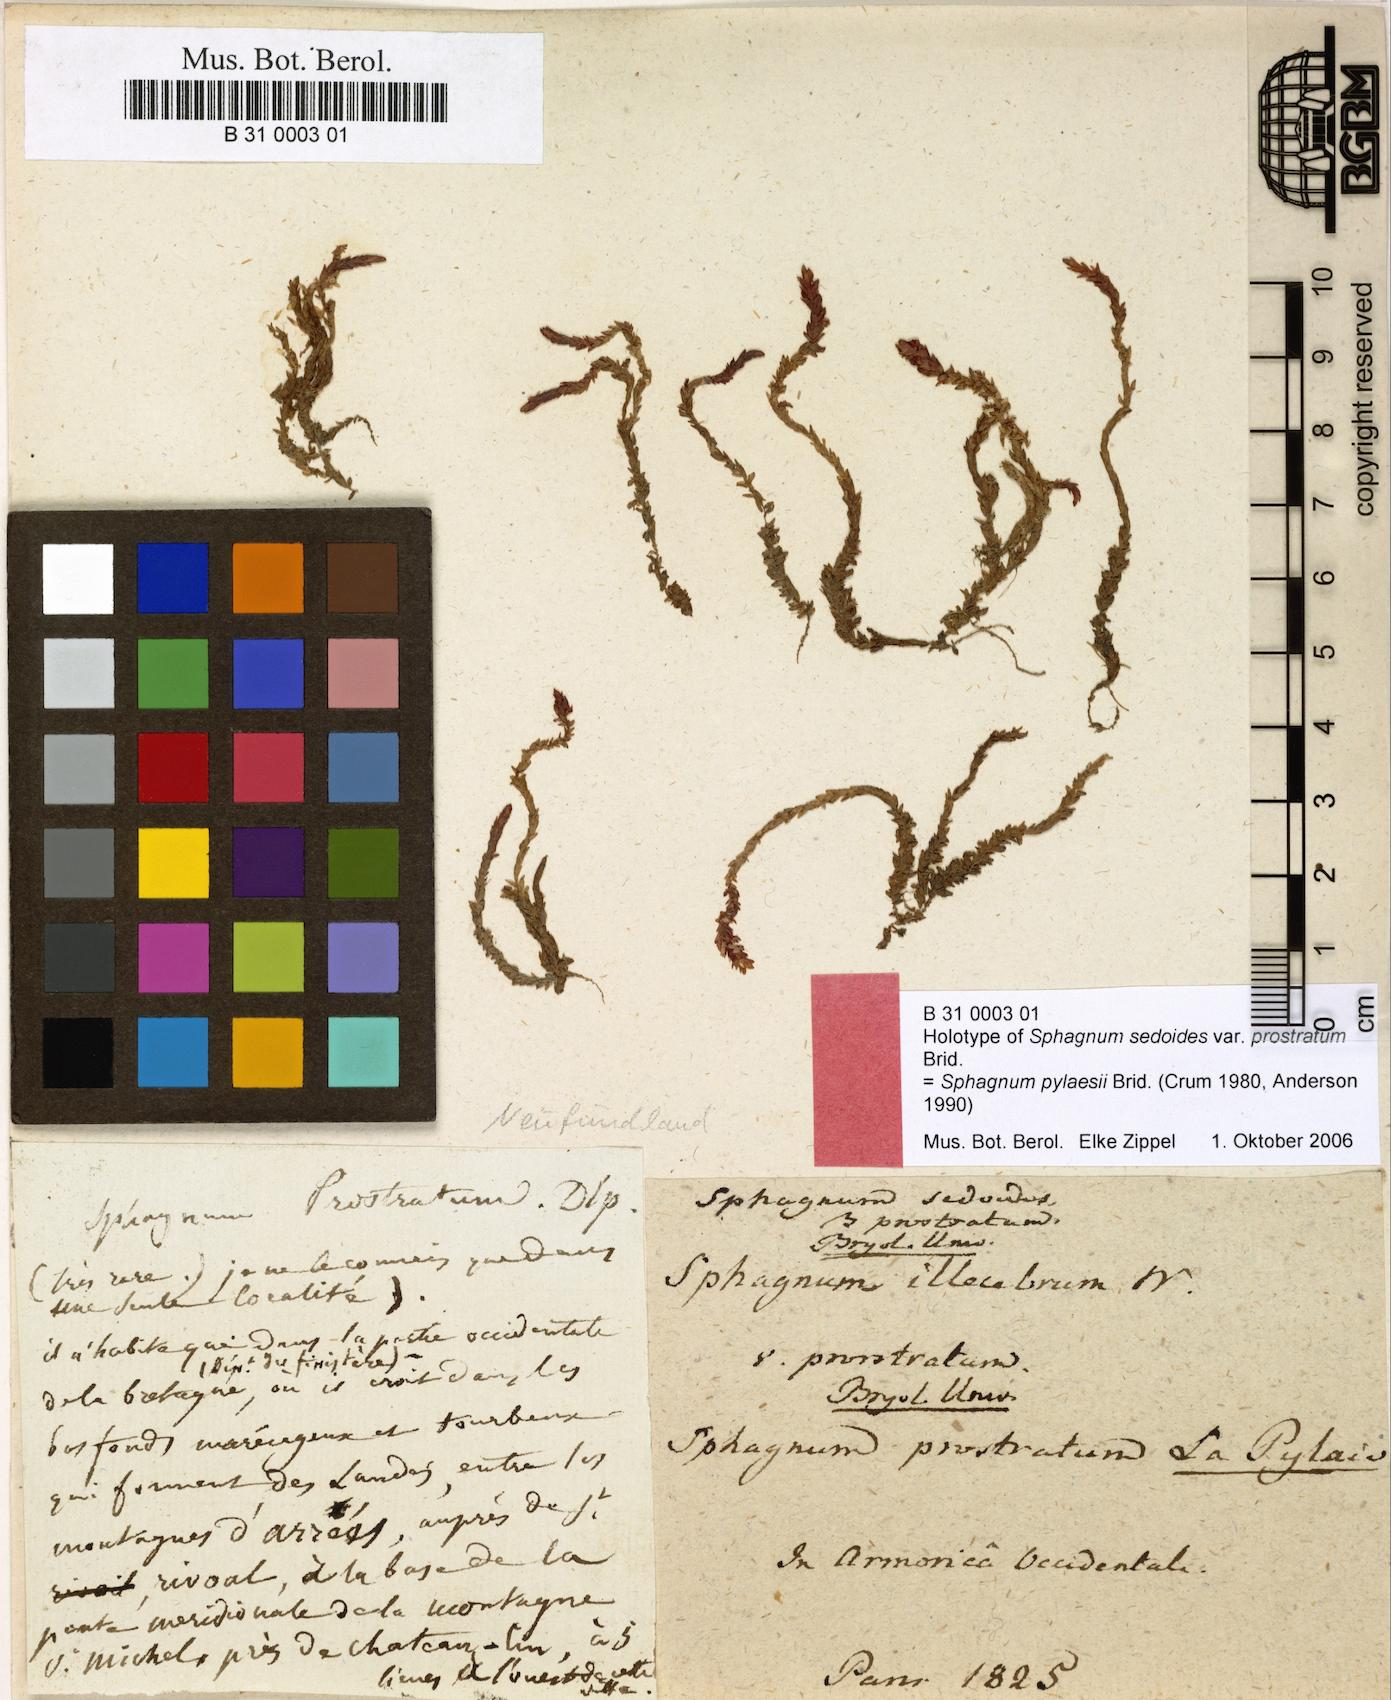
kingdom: Plantae
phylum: Bryophyta
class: Sphagnopsida
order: Sphagnales
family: Sphagnaceae
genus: Sphagnum
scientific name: Sphagnum pylaesii
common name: Pylaie's peat moss
